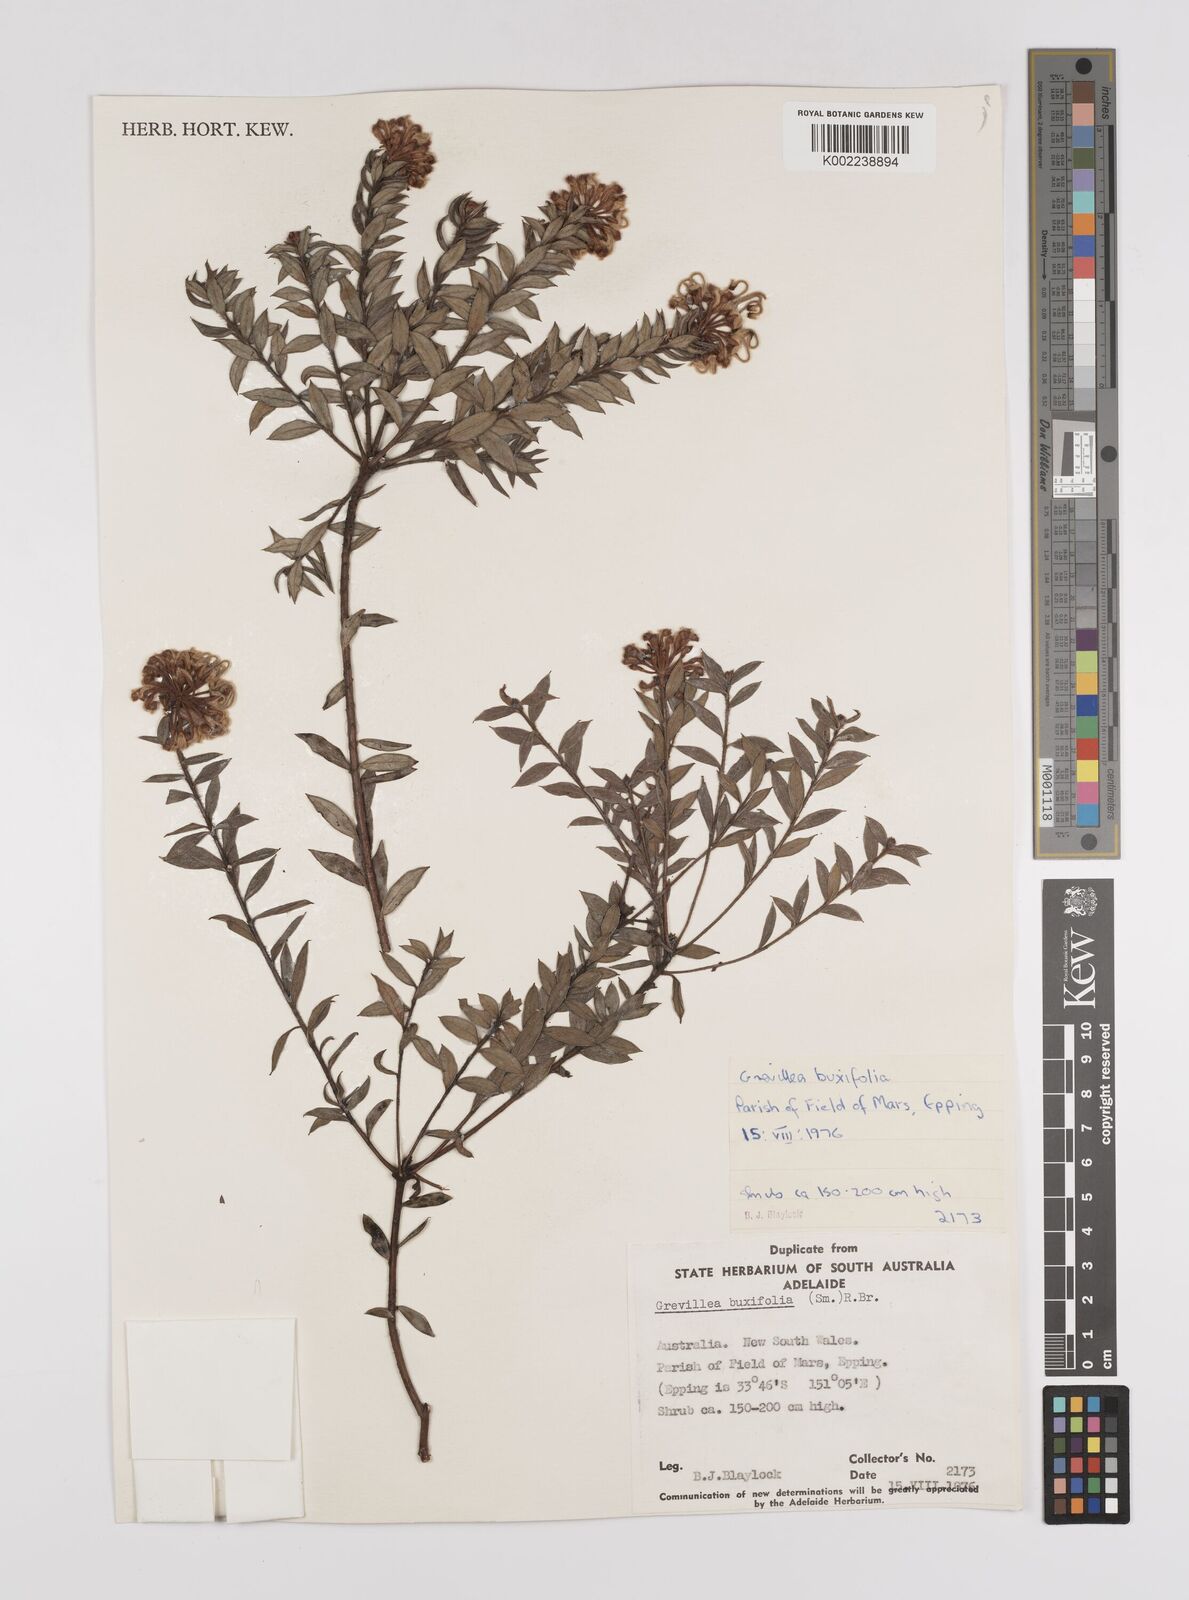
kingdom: Plantae
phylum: Tracheophyta
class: Magnoliopsida
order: Proteales
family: Proteaceae
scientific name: Proteaceae
